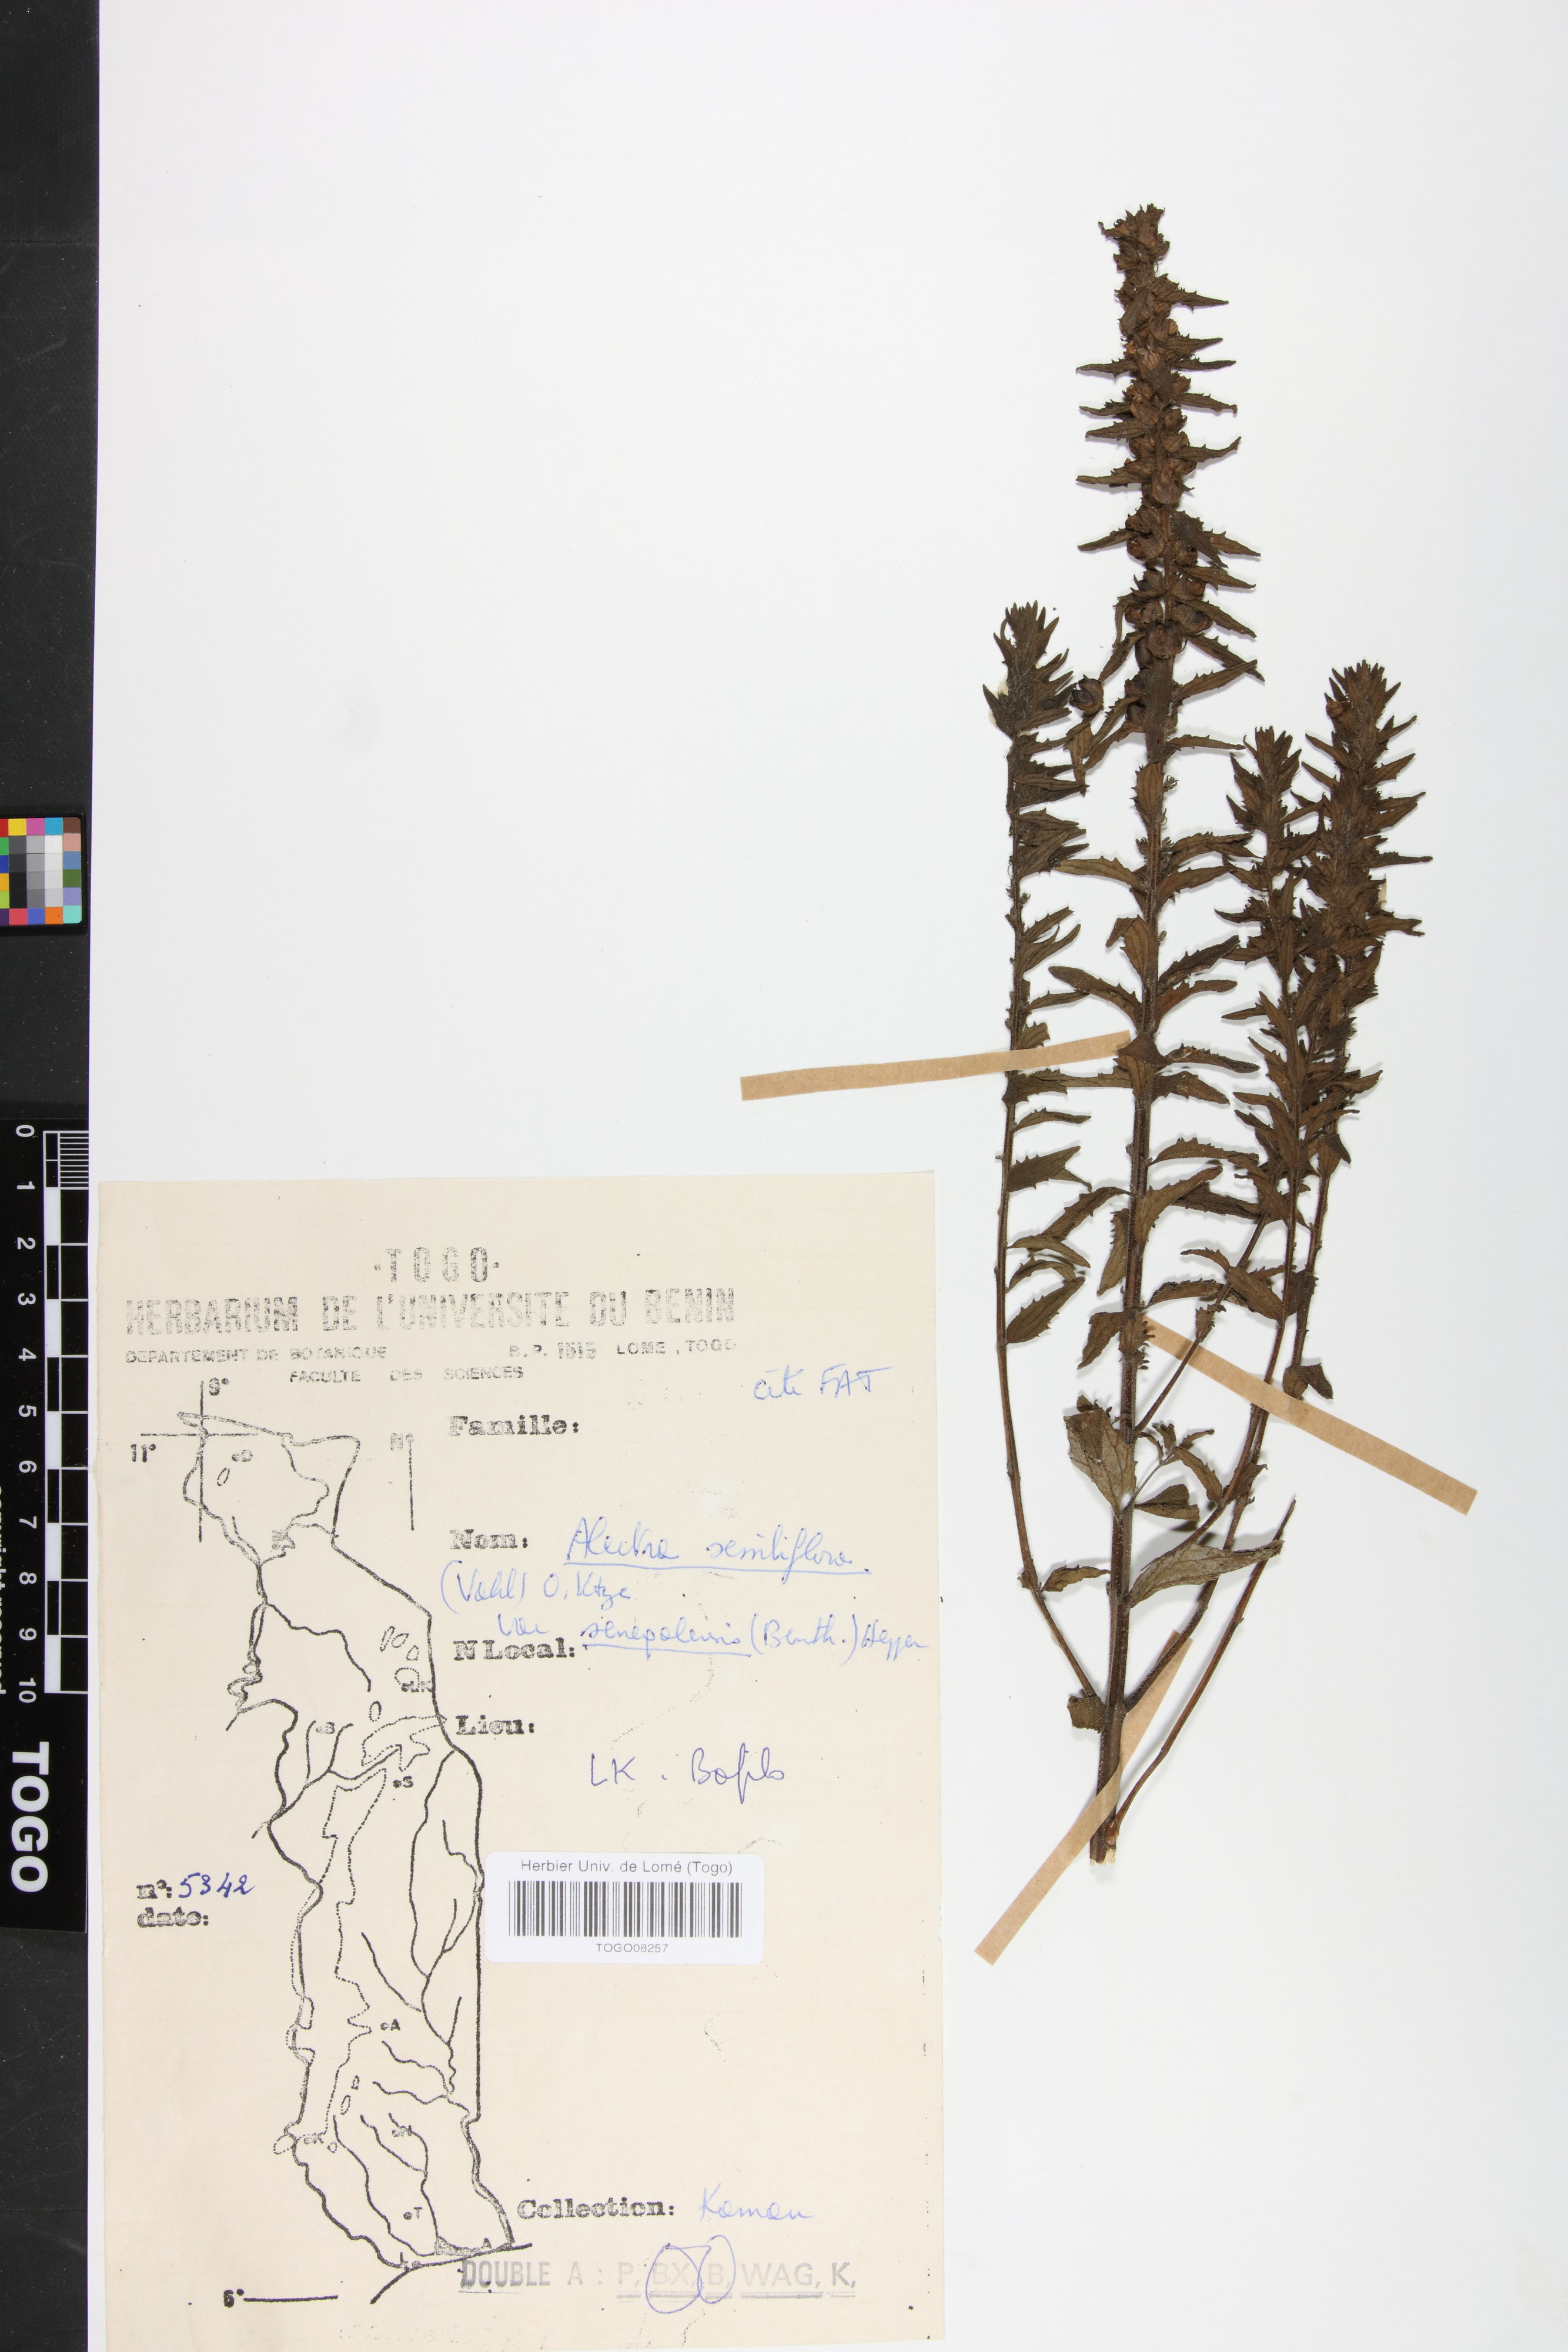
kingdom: Plantae
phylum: Tracheophyta
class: Magnoliopsida
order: Lamiales
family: Orobanchaceae
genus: Alectra
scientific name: Alectra sessiliflora
